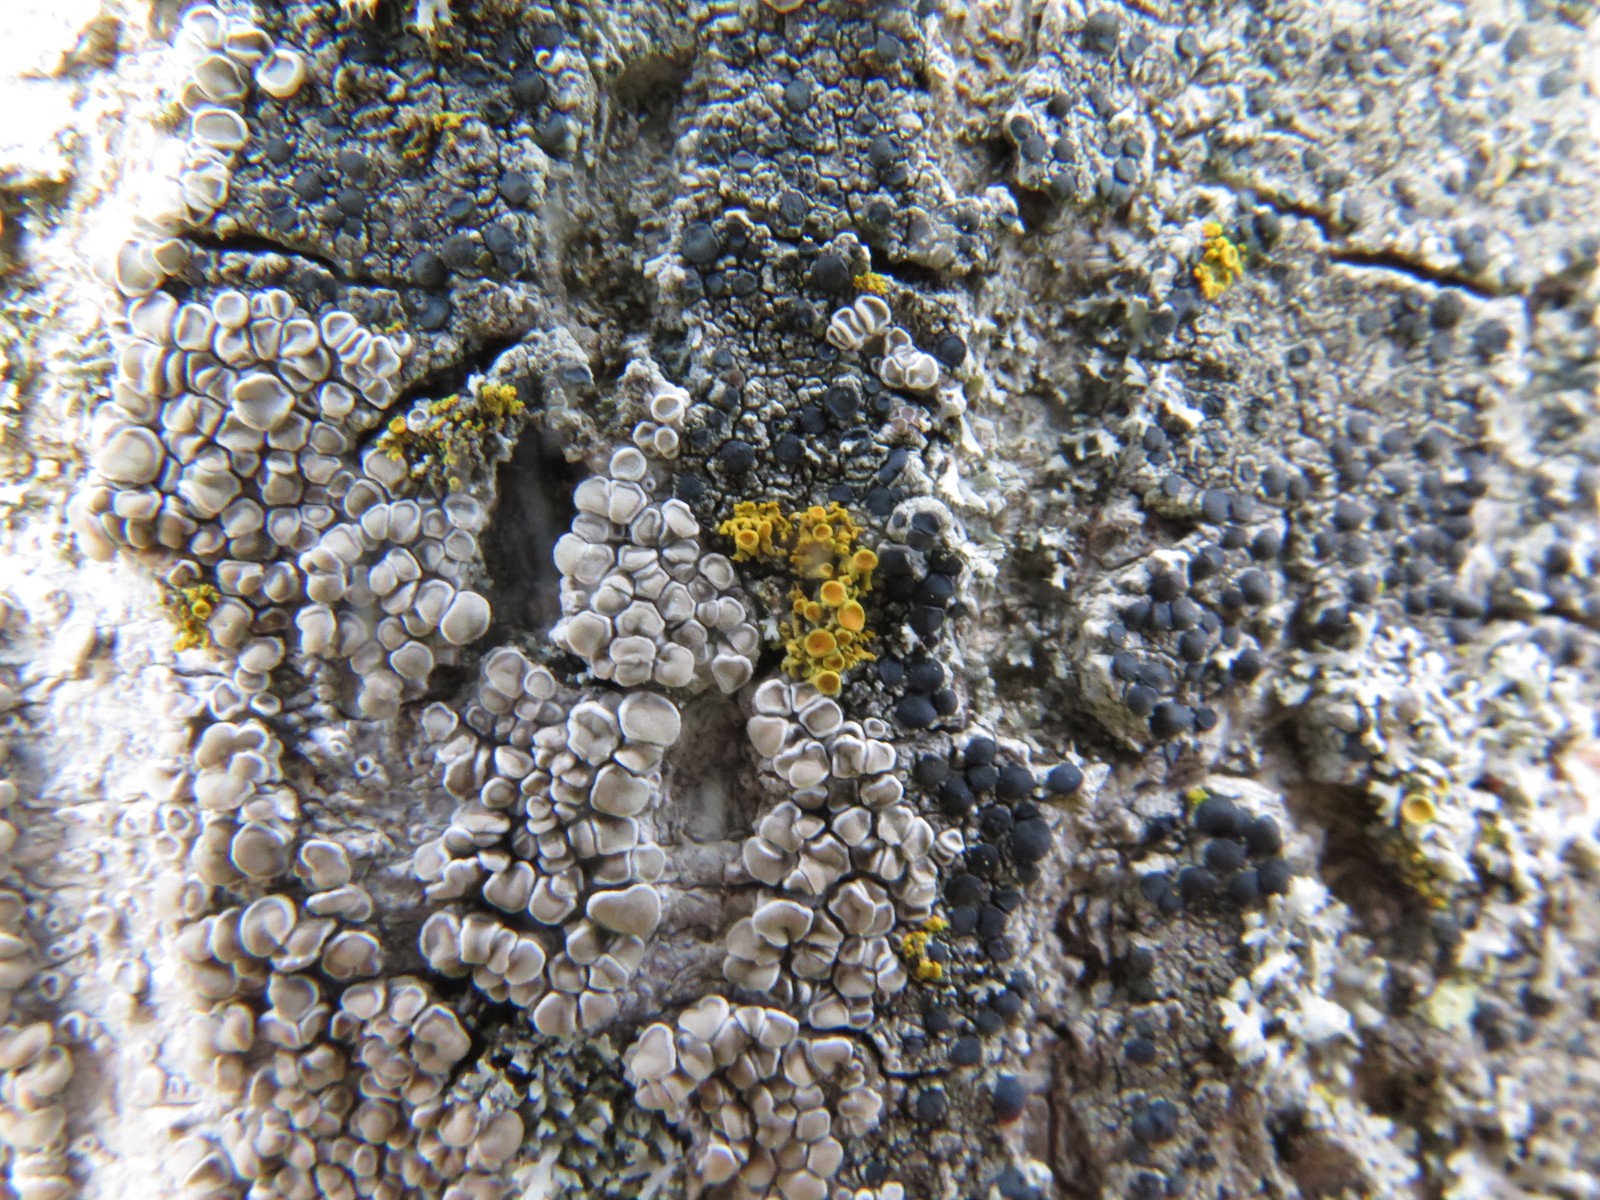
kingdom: Fungi
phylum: Ascomycota
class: Lecanoromycetes
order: Teloschistales
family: Teloschistaceae
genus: Polycauliona
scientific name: Polycauliona polycarpa
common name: mangefrugtet orangelav
